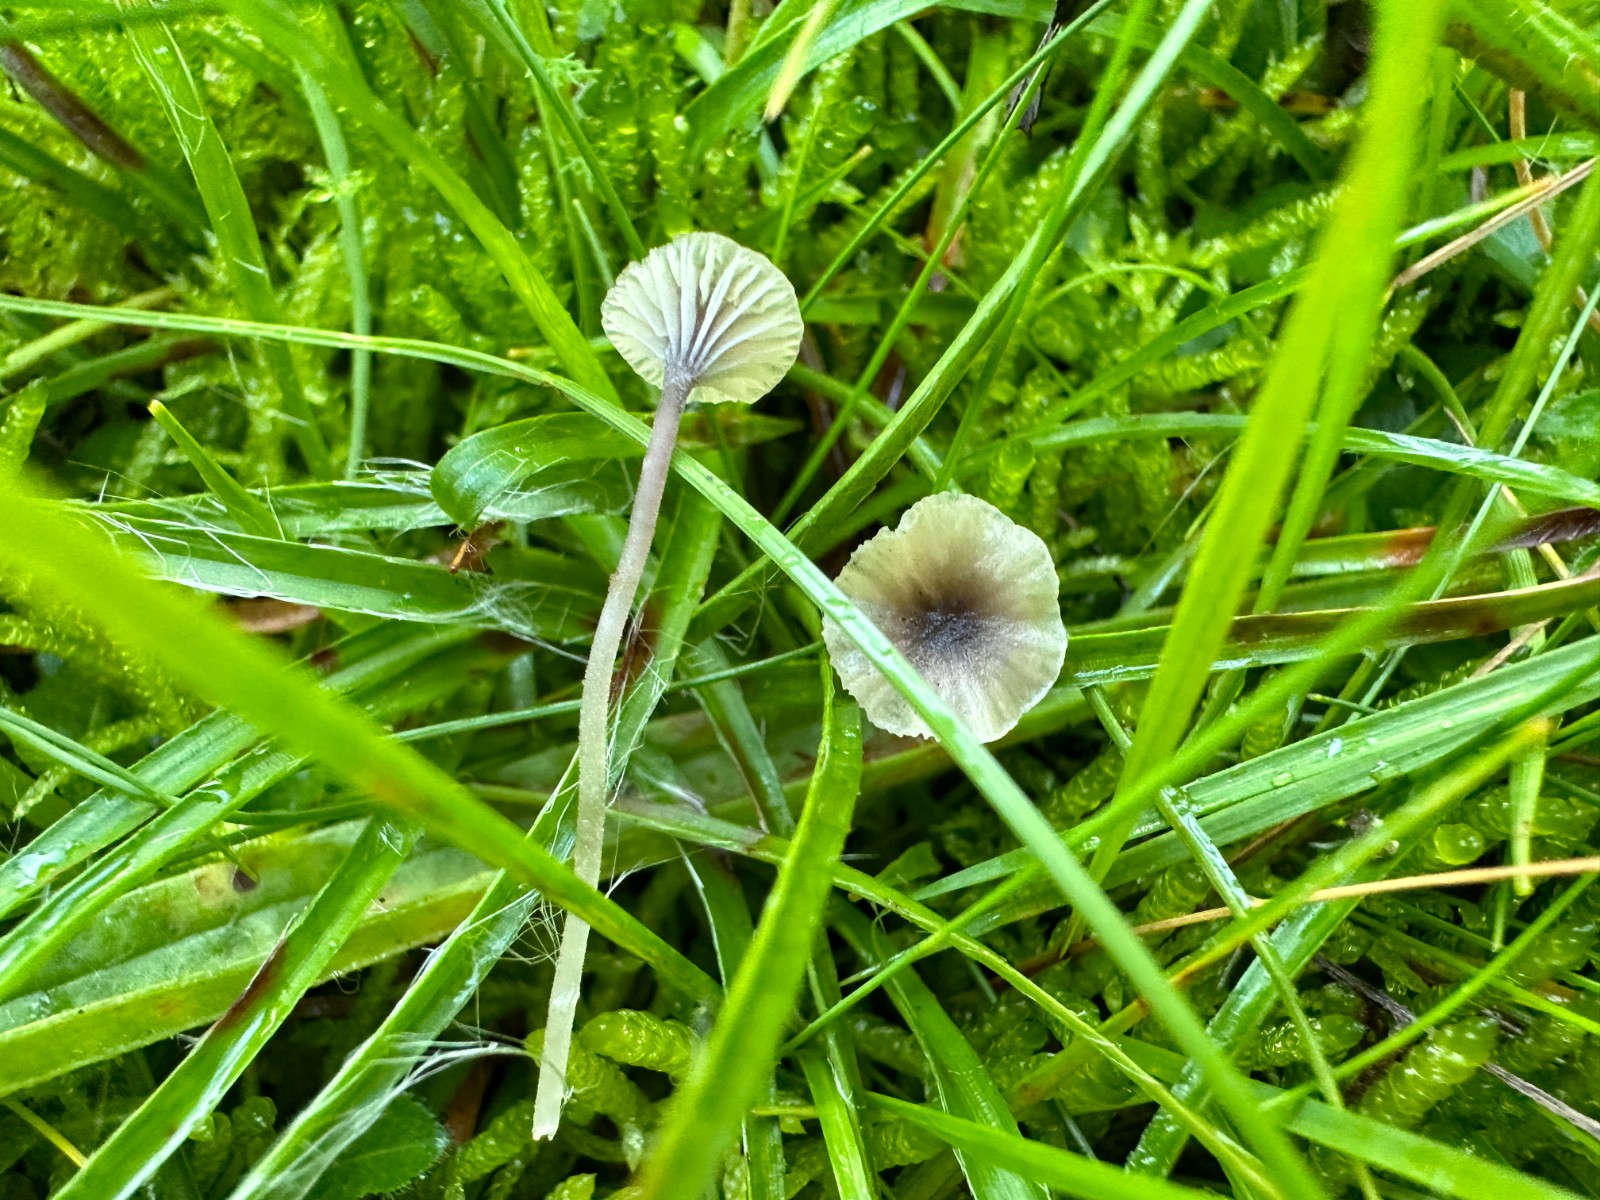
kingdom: Fungi
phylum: Basidiomycota
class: Agaricomycetes
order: Hymenochaetales
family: Rickenellaceae
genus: Rickenella
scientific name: Rickenella swartzii
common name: finstokket mosnavlehat
